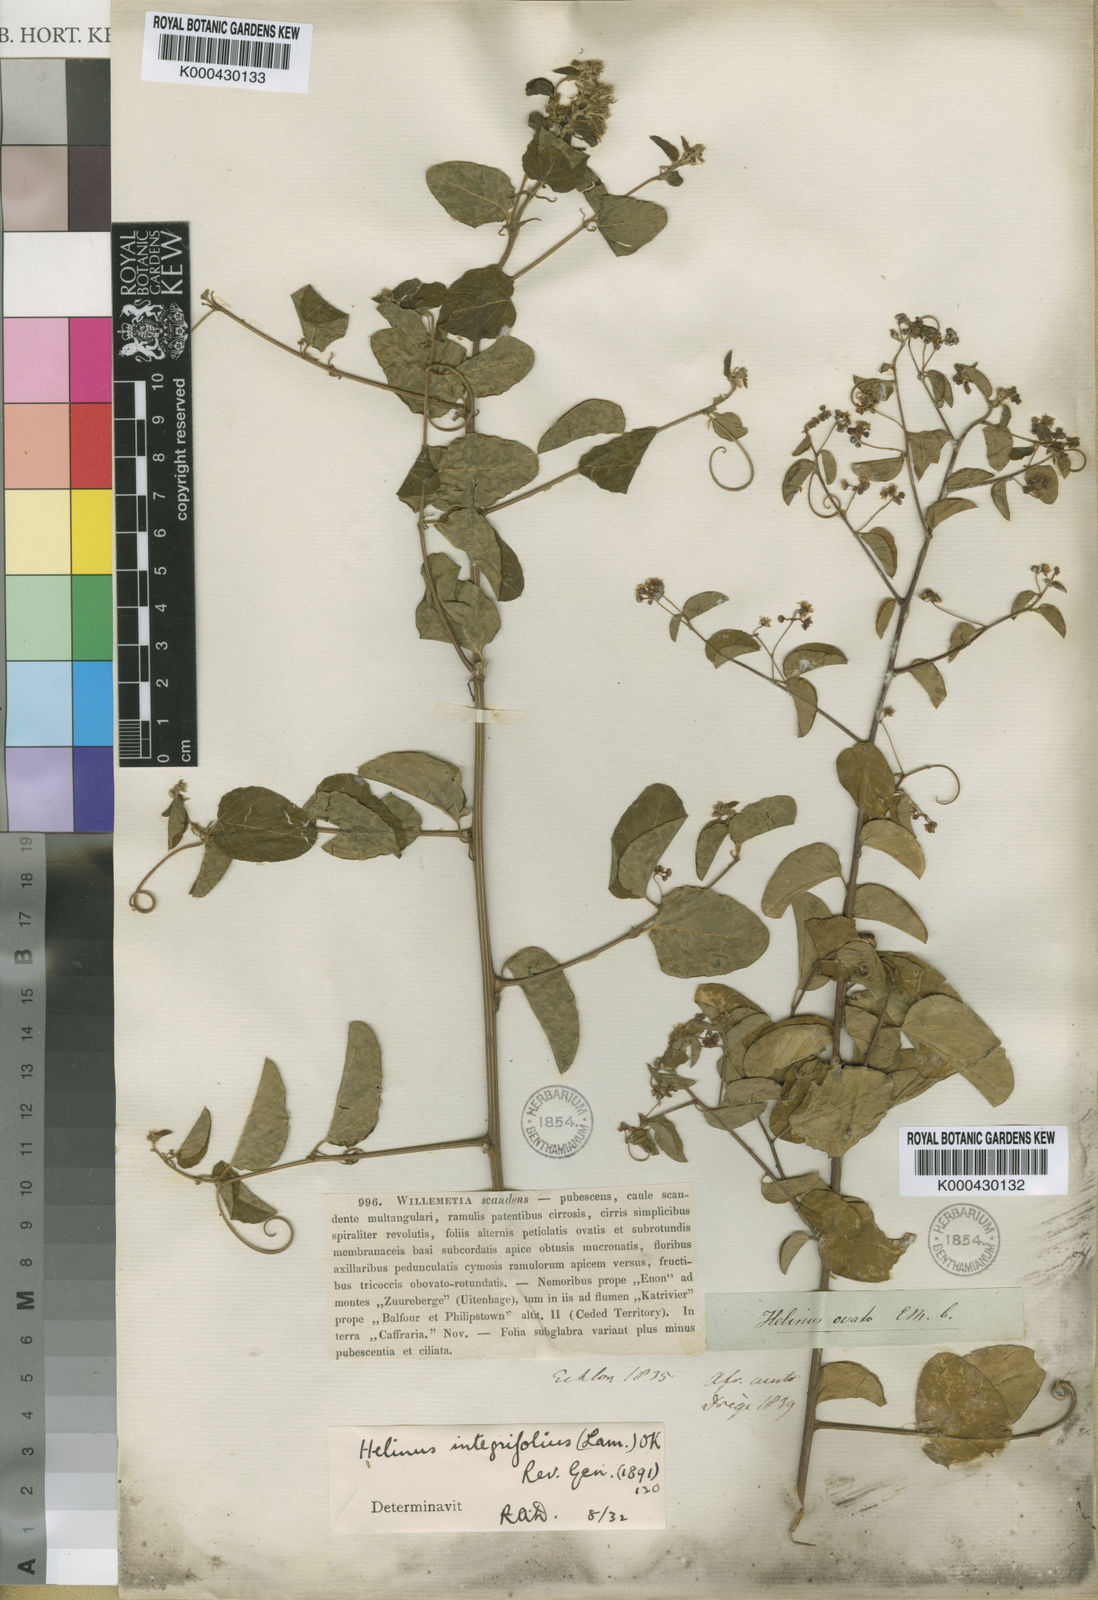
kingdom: Plantae
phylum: Tracheophyta
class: Magnoliopsida
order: Rosales
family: Rhamnaceae
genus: Helinus
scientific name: Helinus integrifolius
